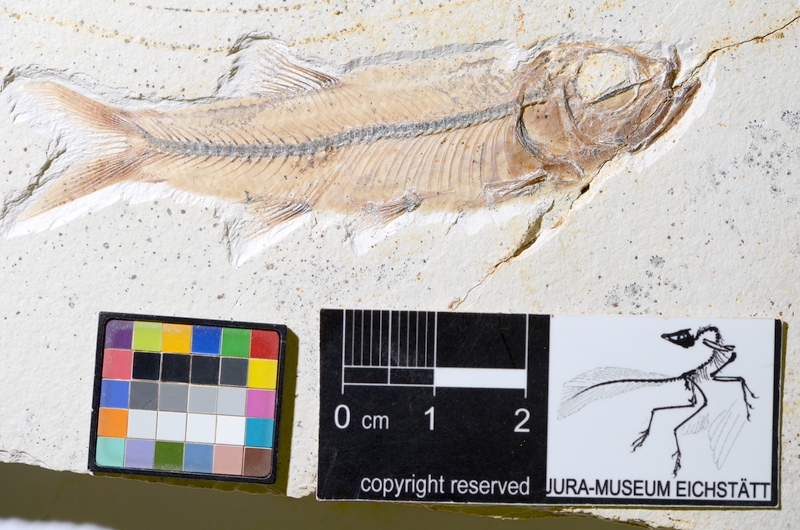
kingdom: Animalia
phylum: Chordata
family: Ascalaboidae
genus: Ebertichthys
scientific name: Ebertichthys ettlingensis
